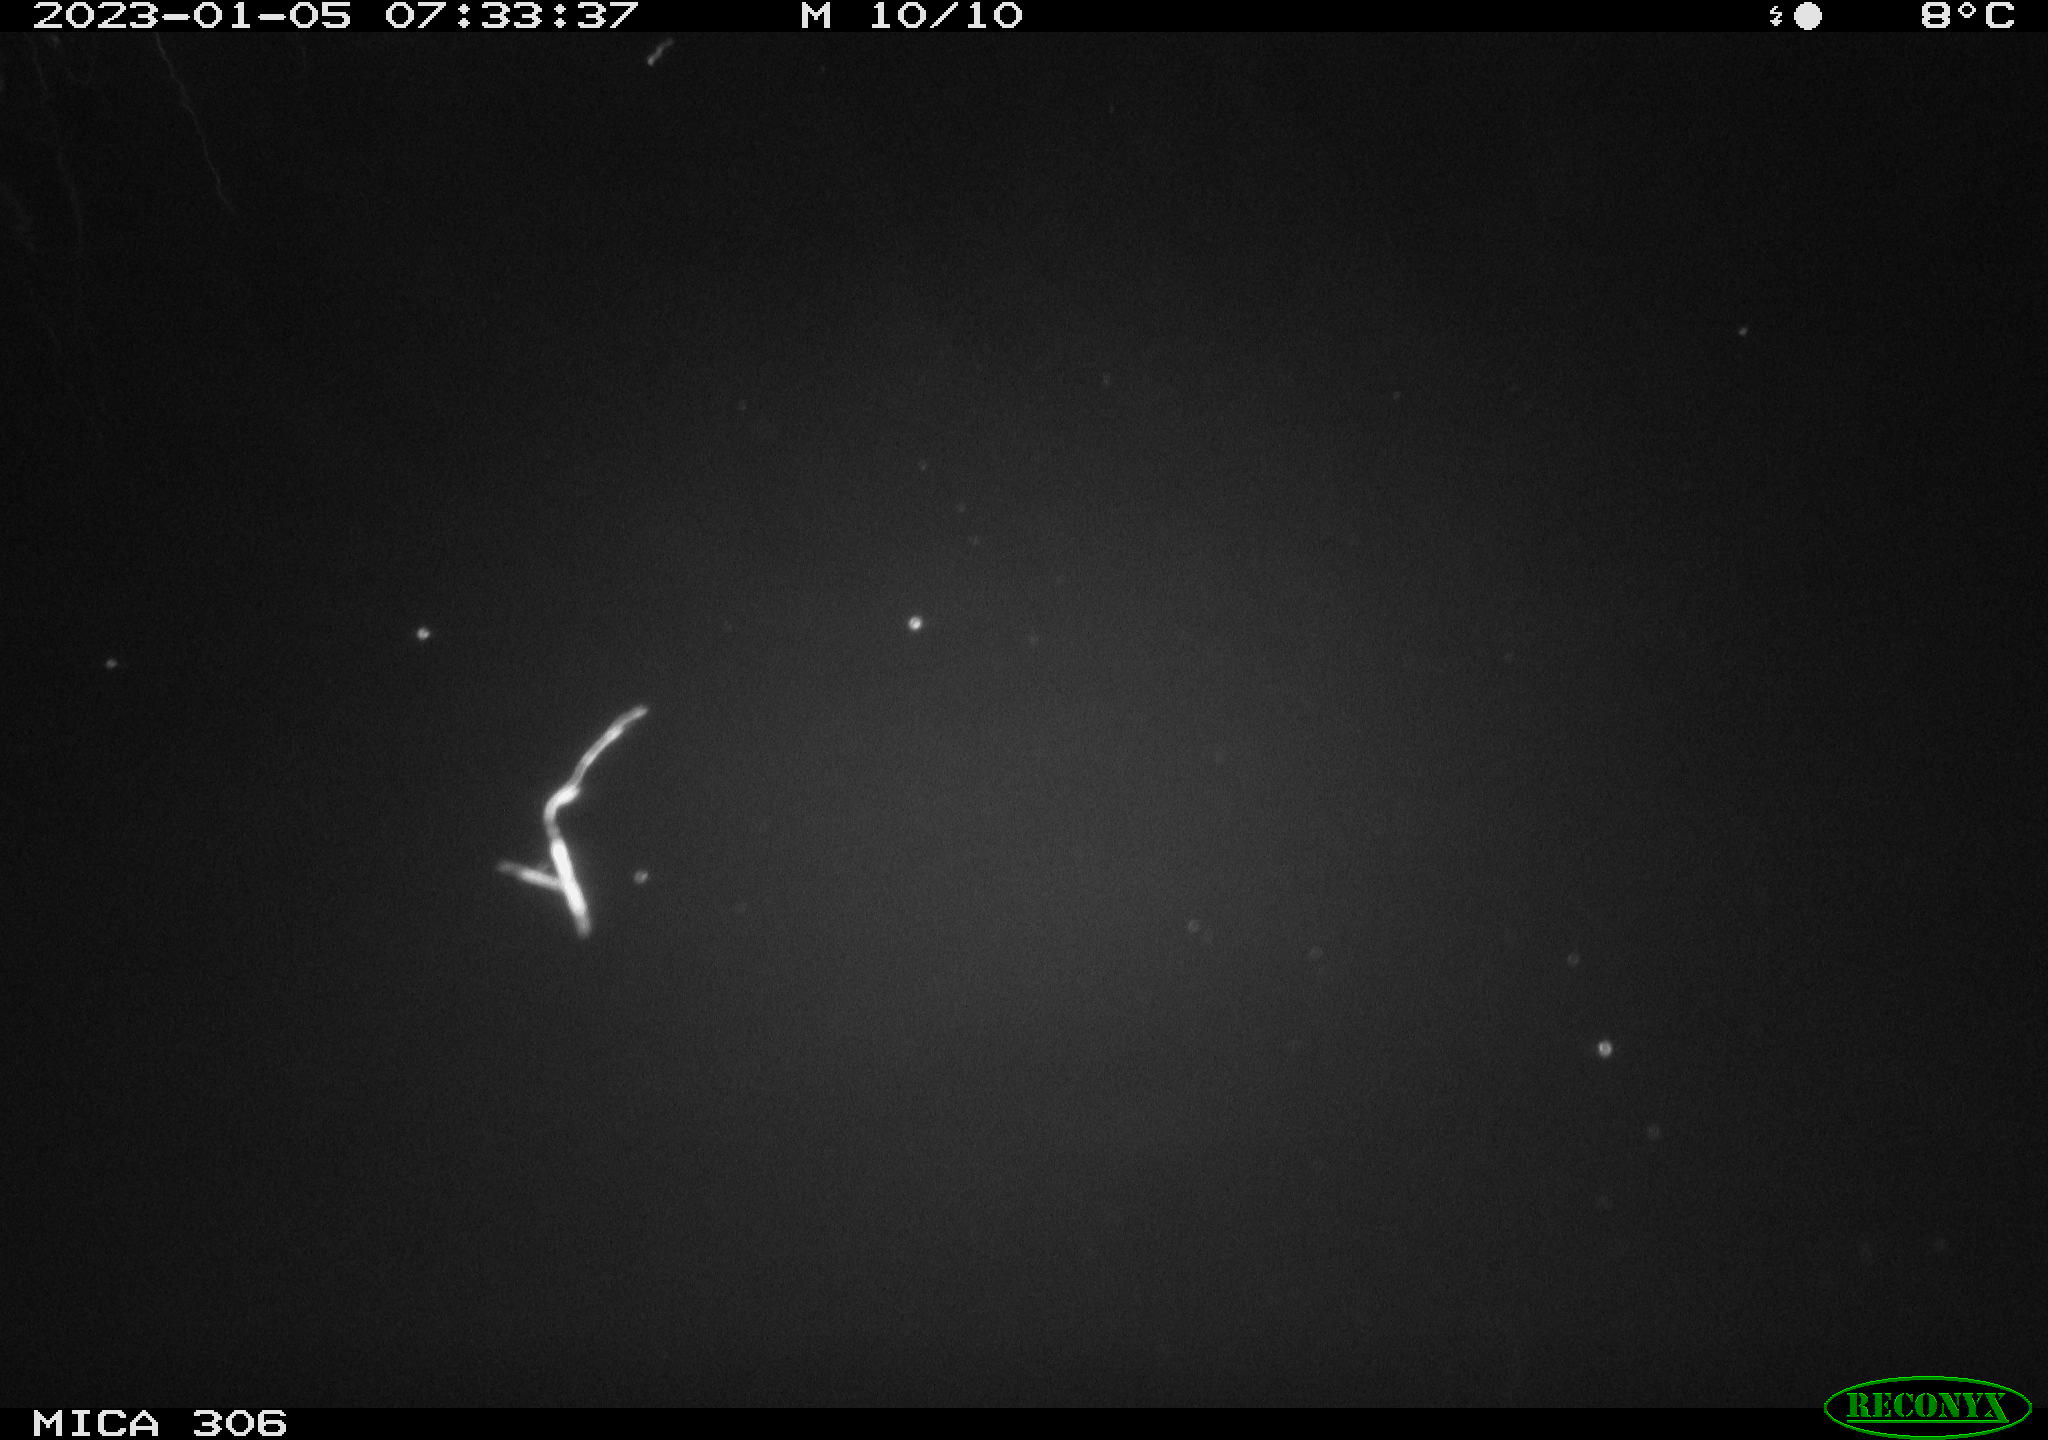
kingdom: Animalia
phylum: Chordata
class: Mammalia
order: Rodentia
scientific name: Rodentia
